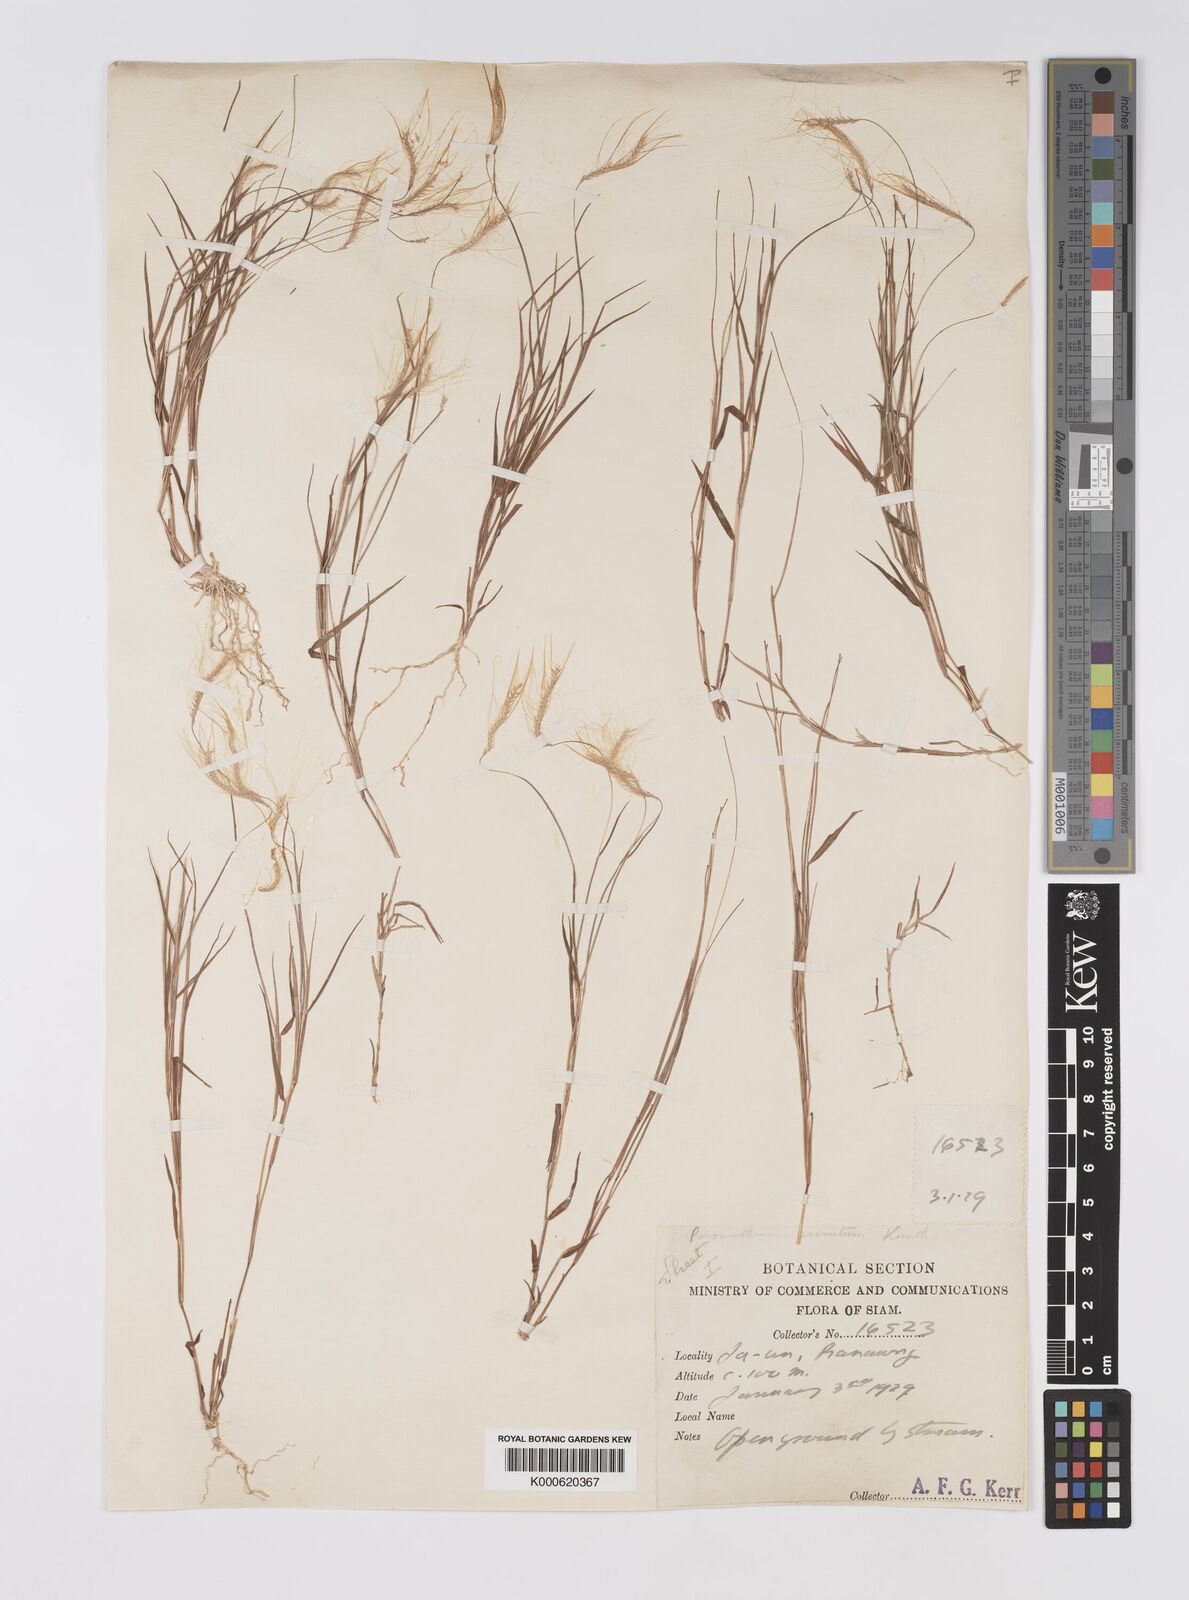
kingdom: Plantae
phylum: Tracheophyta
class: Liliopsida
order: Poales
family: Poaceae
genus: Pogonatherum
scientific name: Pogonatherum crinitum
